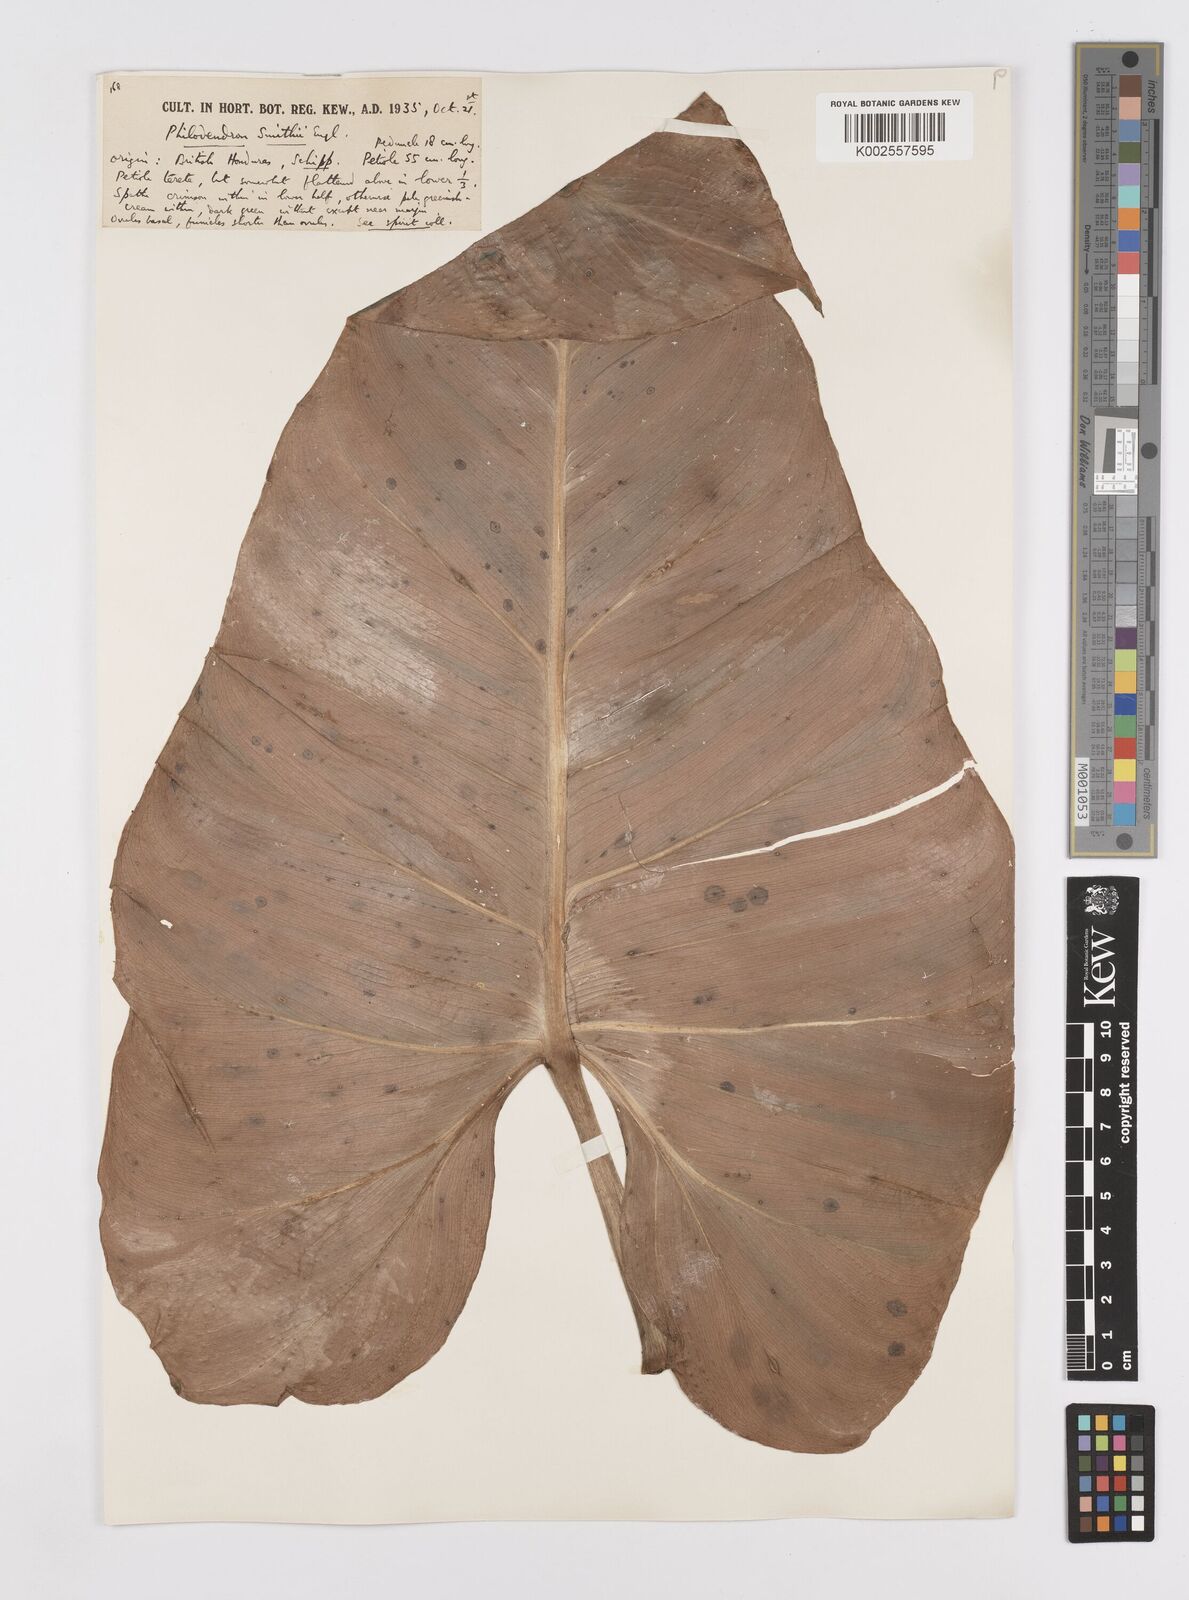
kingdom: Plantae
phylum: Tracheophyta
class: Liliopsida
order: Alismatales
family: Araceae
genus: Philodendron
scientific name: Philodendron smithii
